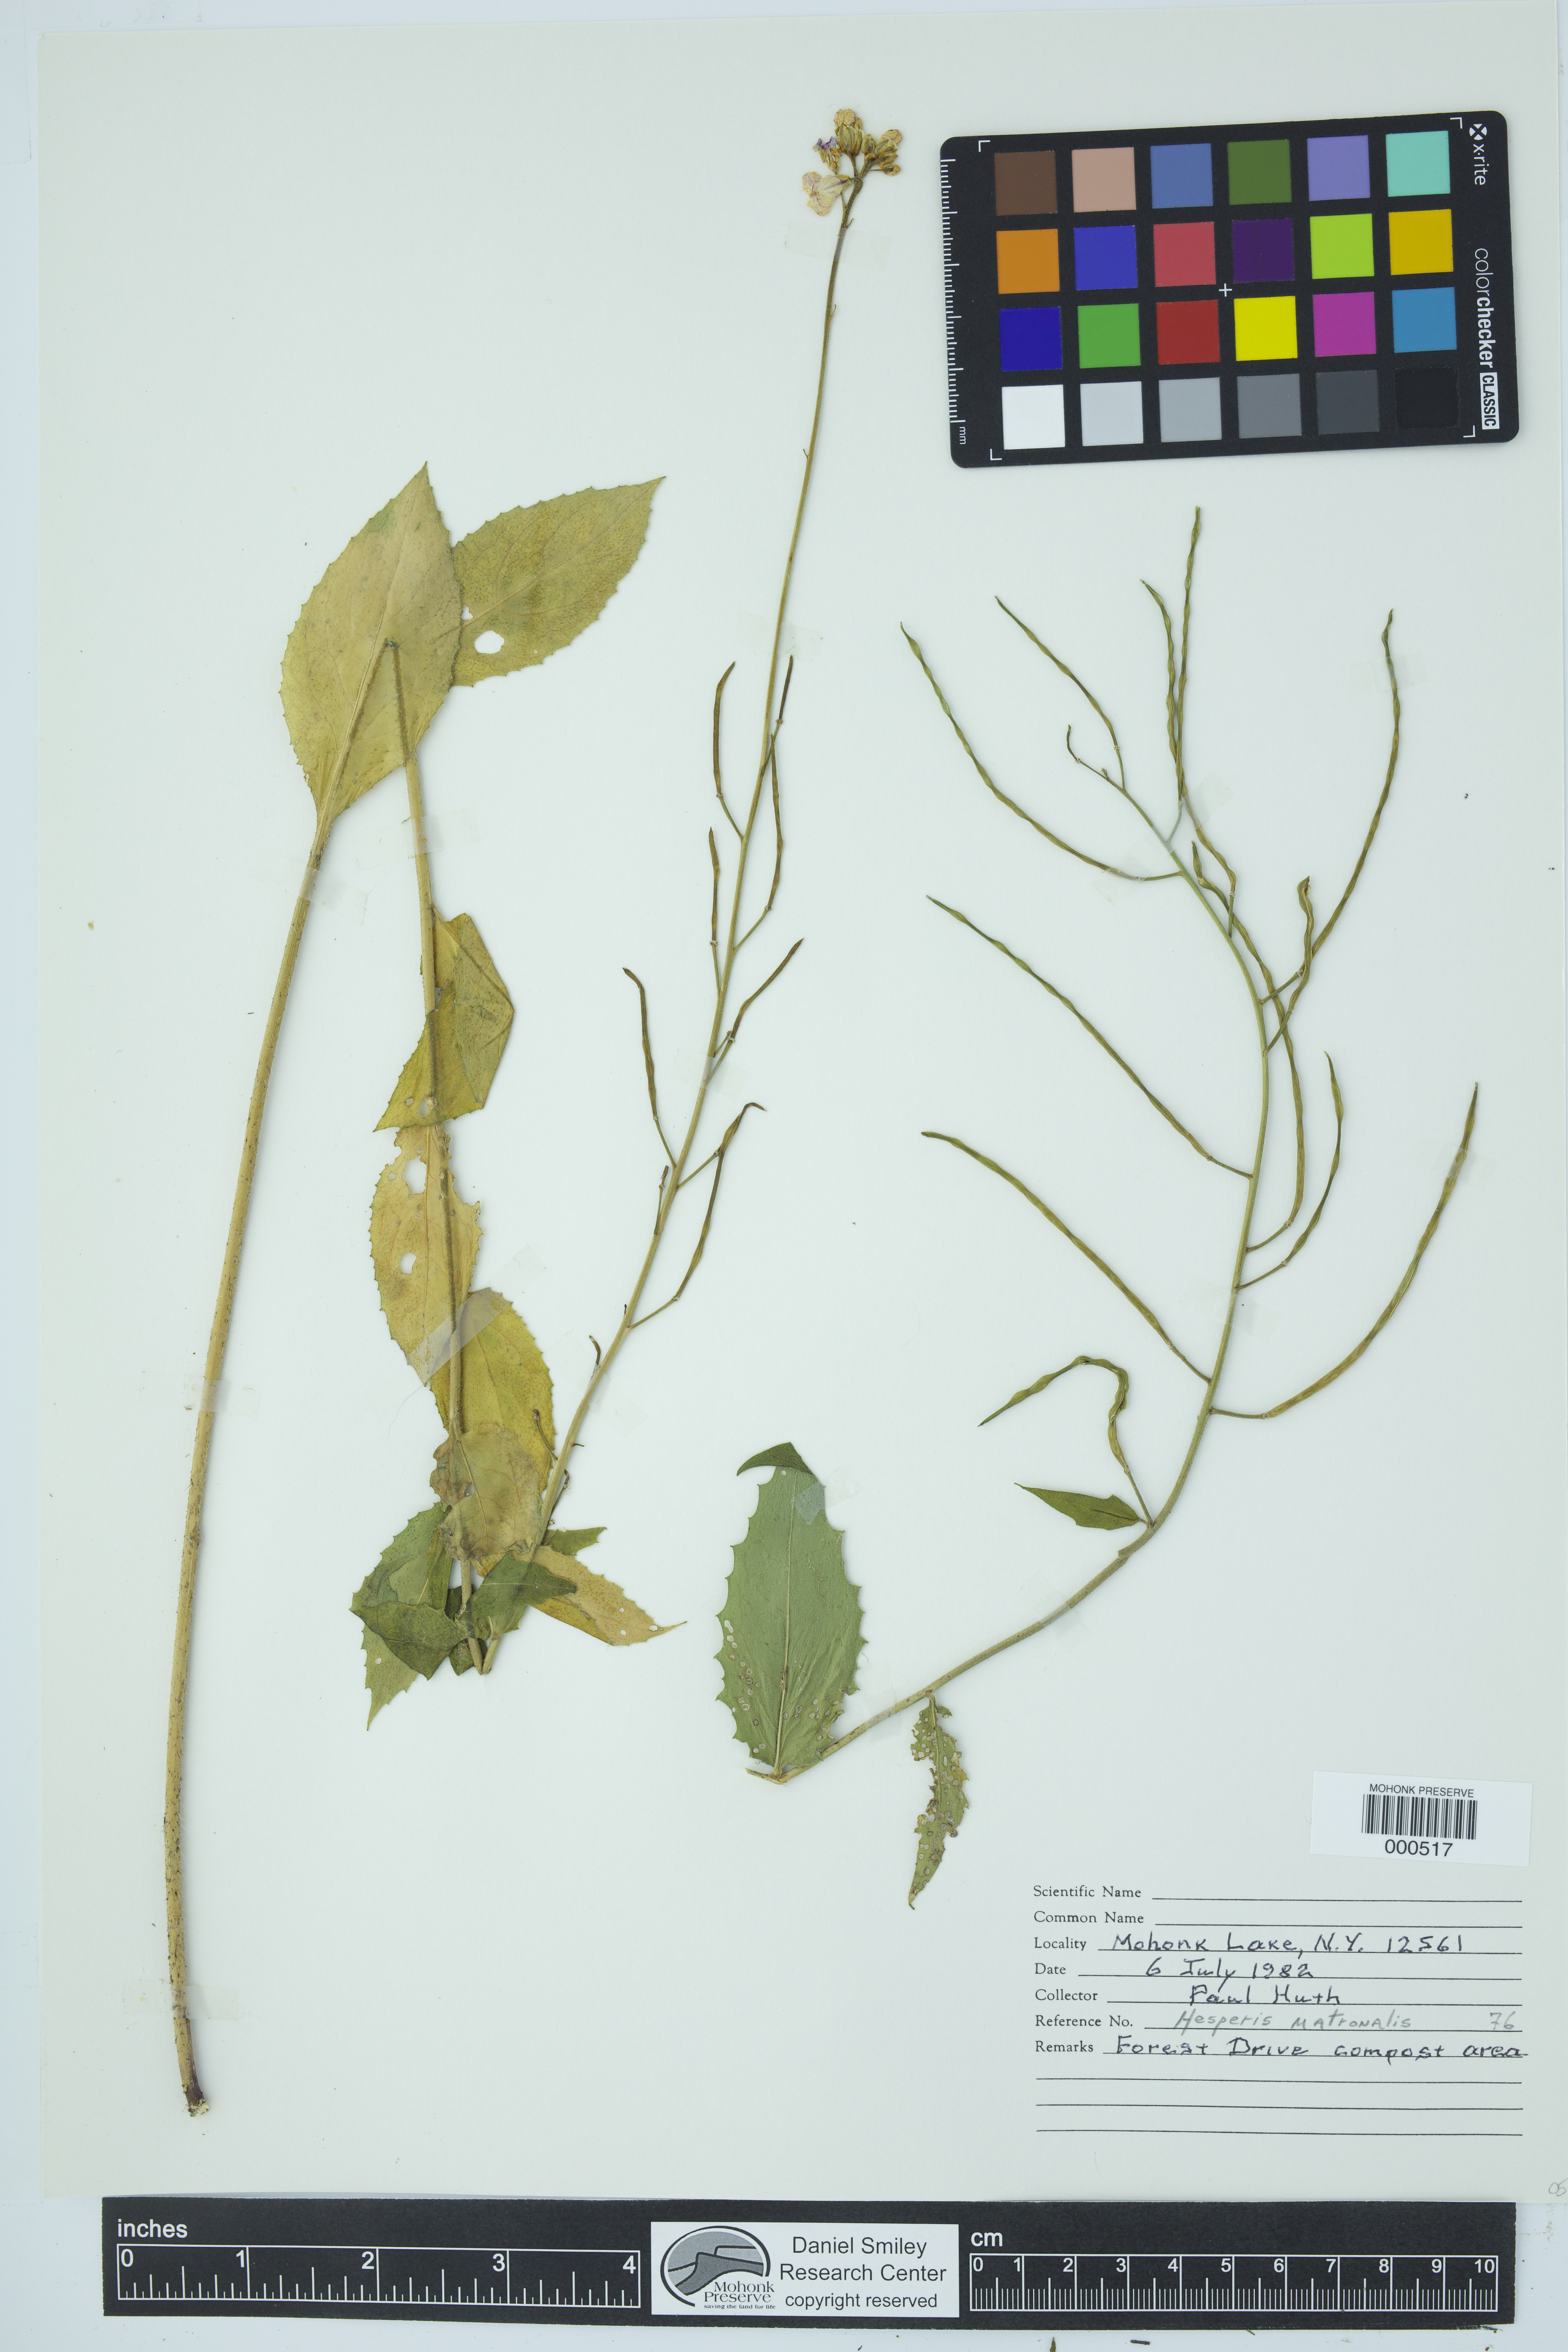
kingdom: Plantae
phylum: Tracheophyta
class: Magnoliopsida
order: Brassicales
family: Brassicaceae
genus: Hesperis
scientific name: Hesperis matronalis
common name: Dame's-violet
